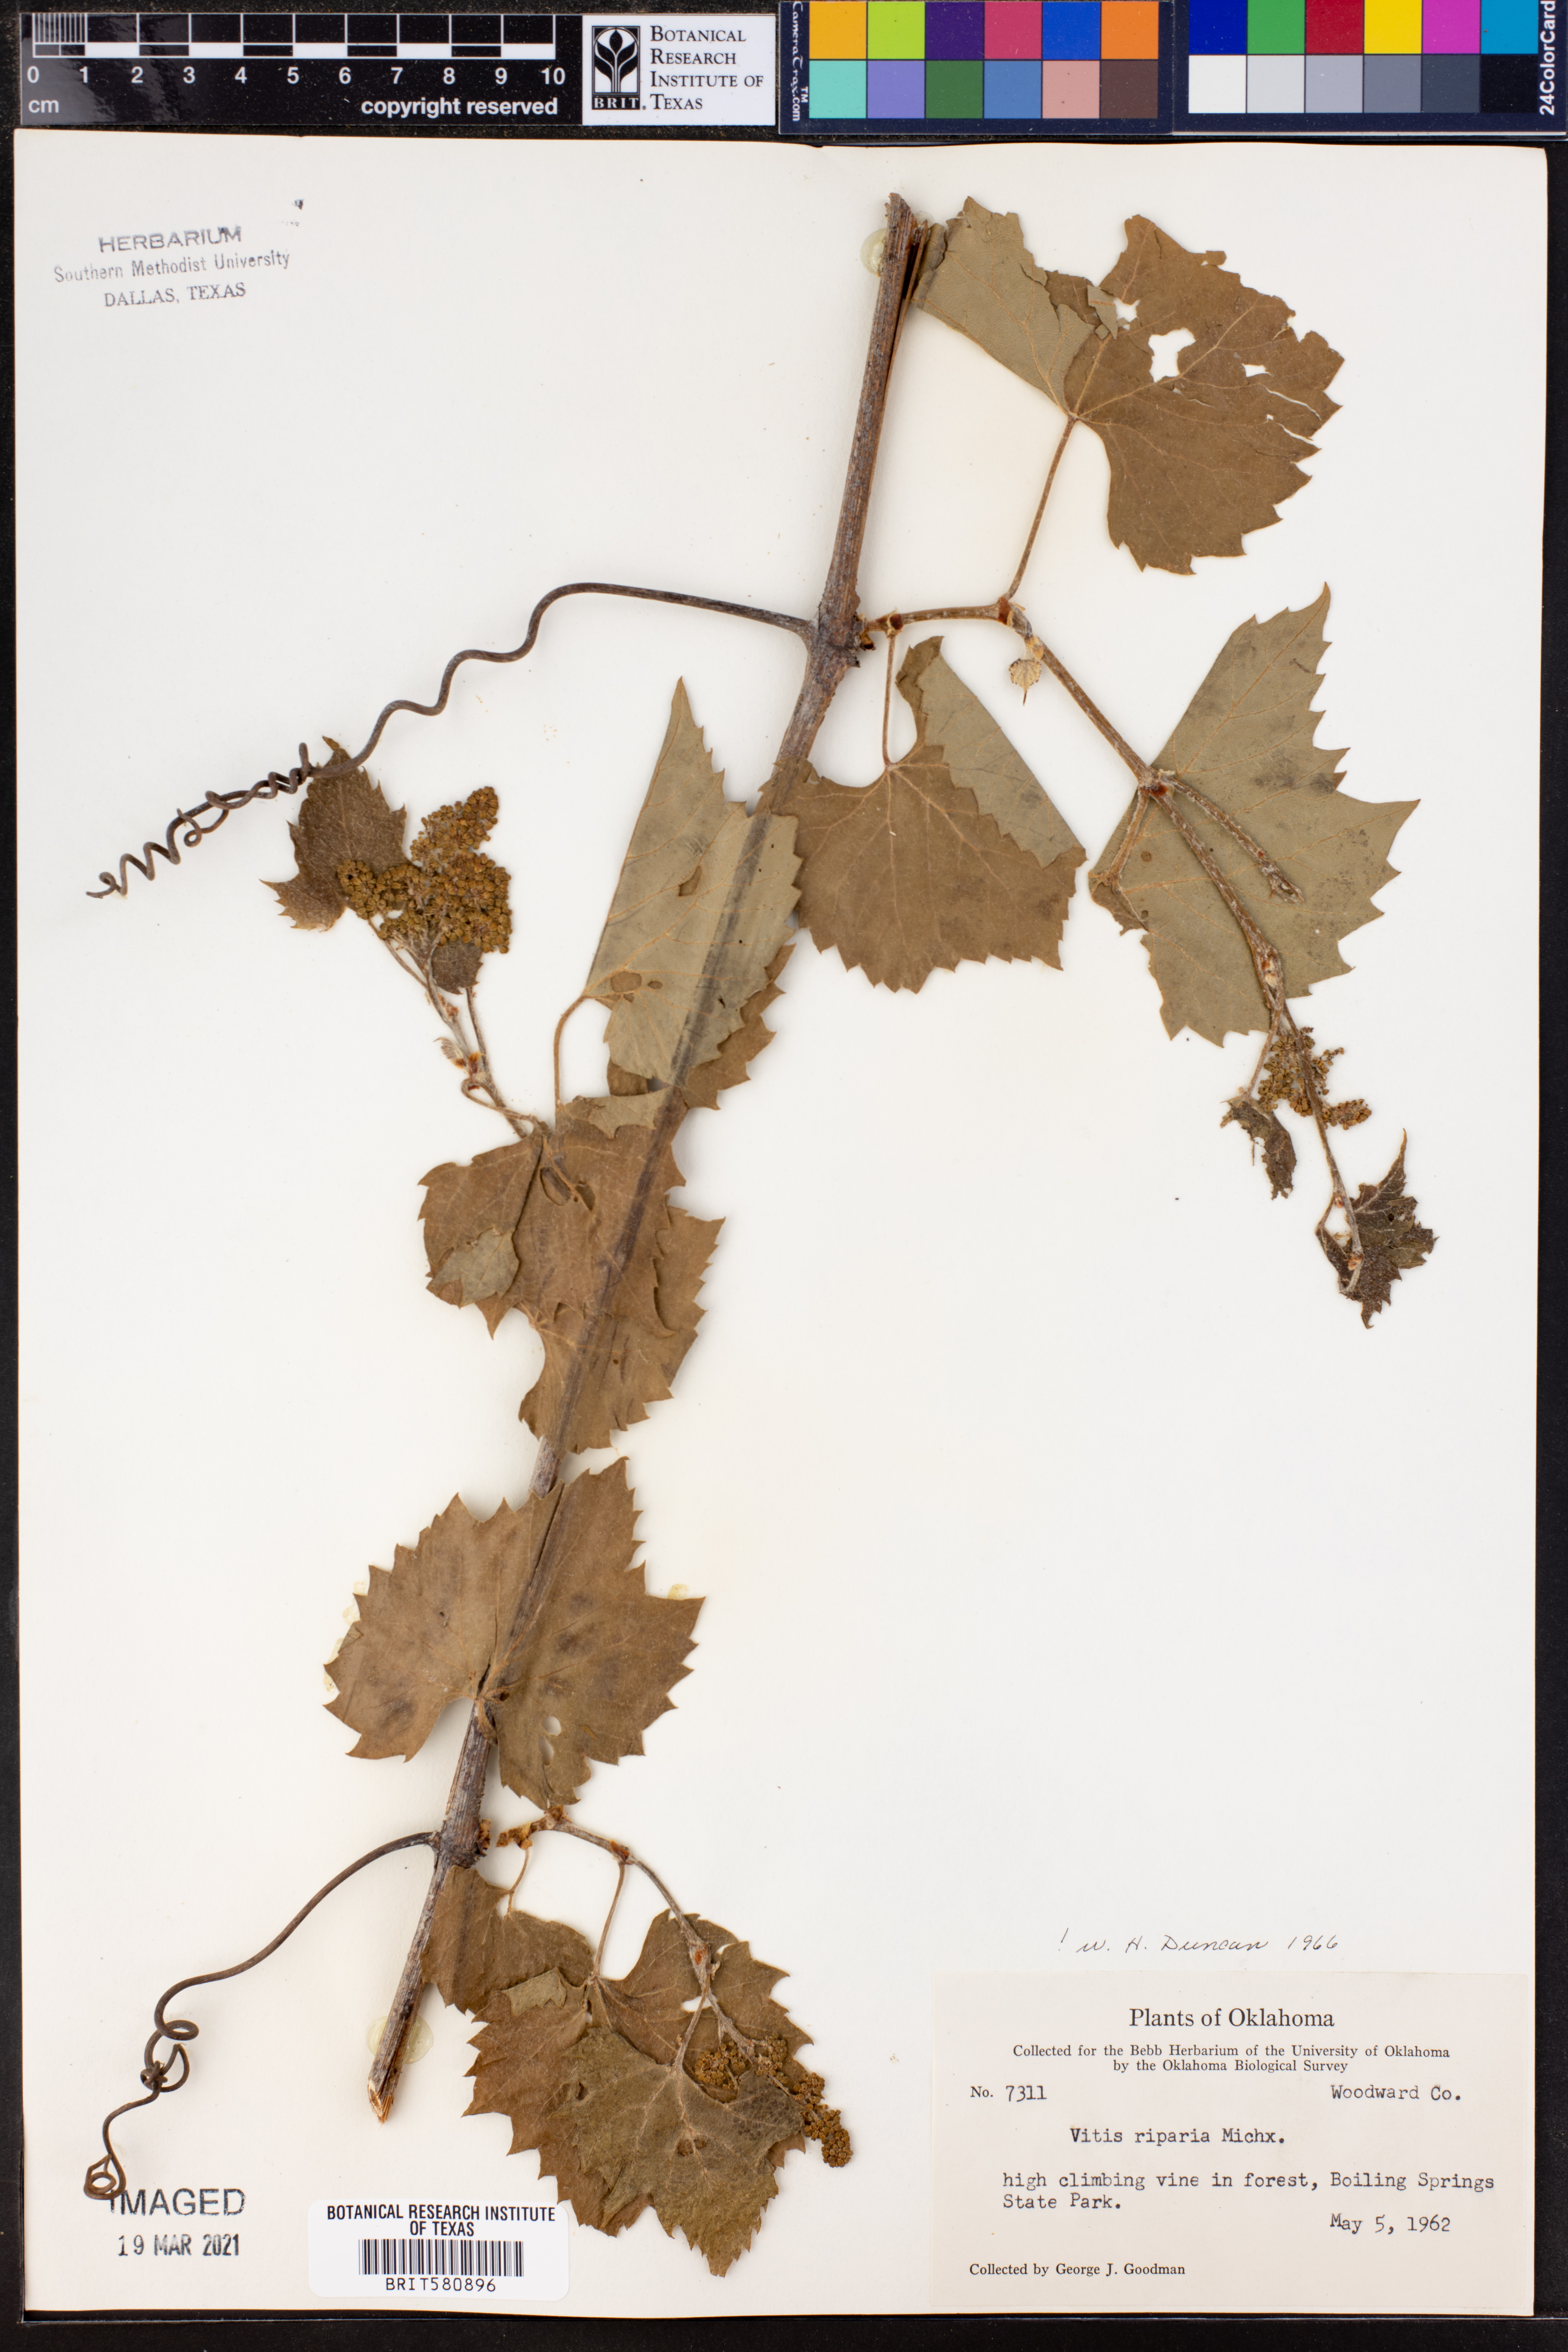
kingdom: Plantae
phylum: Tracheophyta
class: Magnoliopsida
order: Vitales
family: Vitaceae
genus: Vitis
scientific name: Vitis riparia
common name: Frost grape
